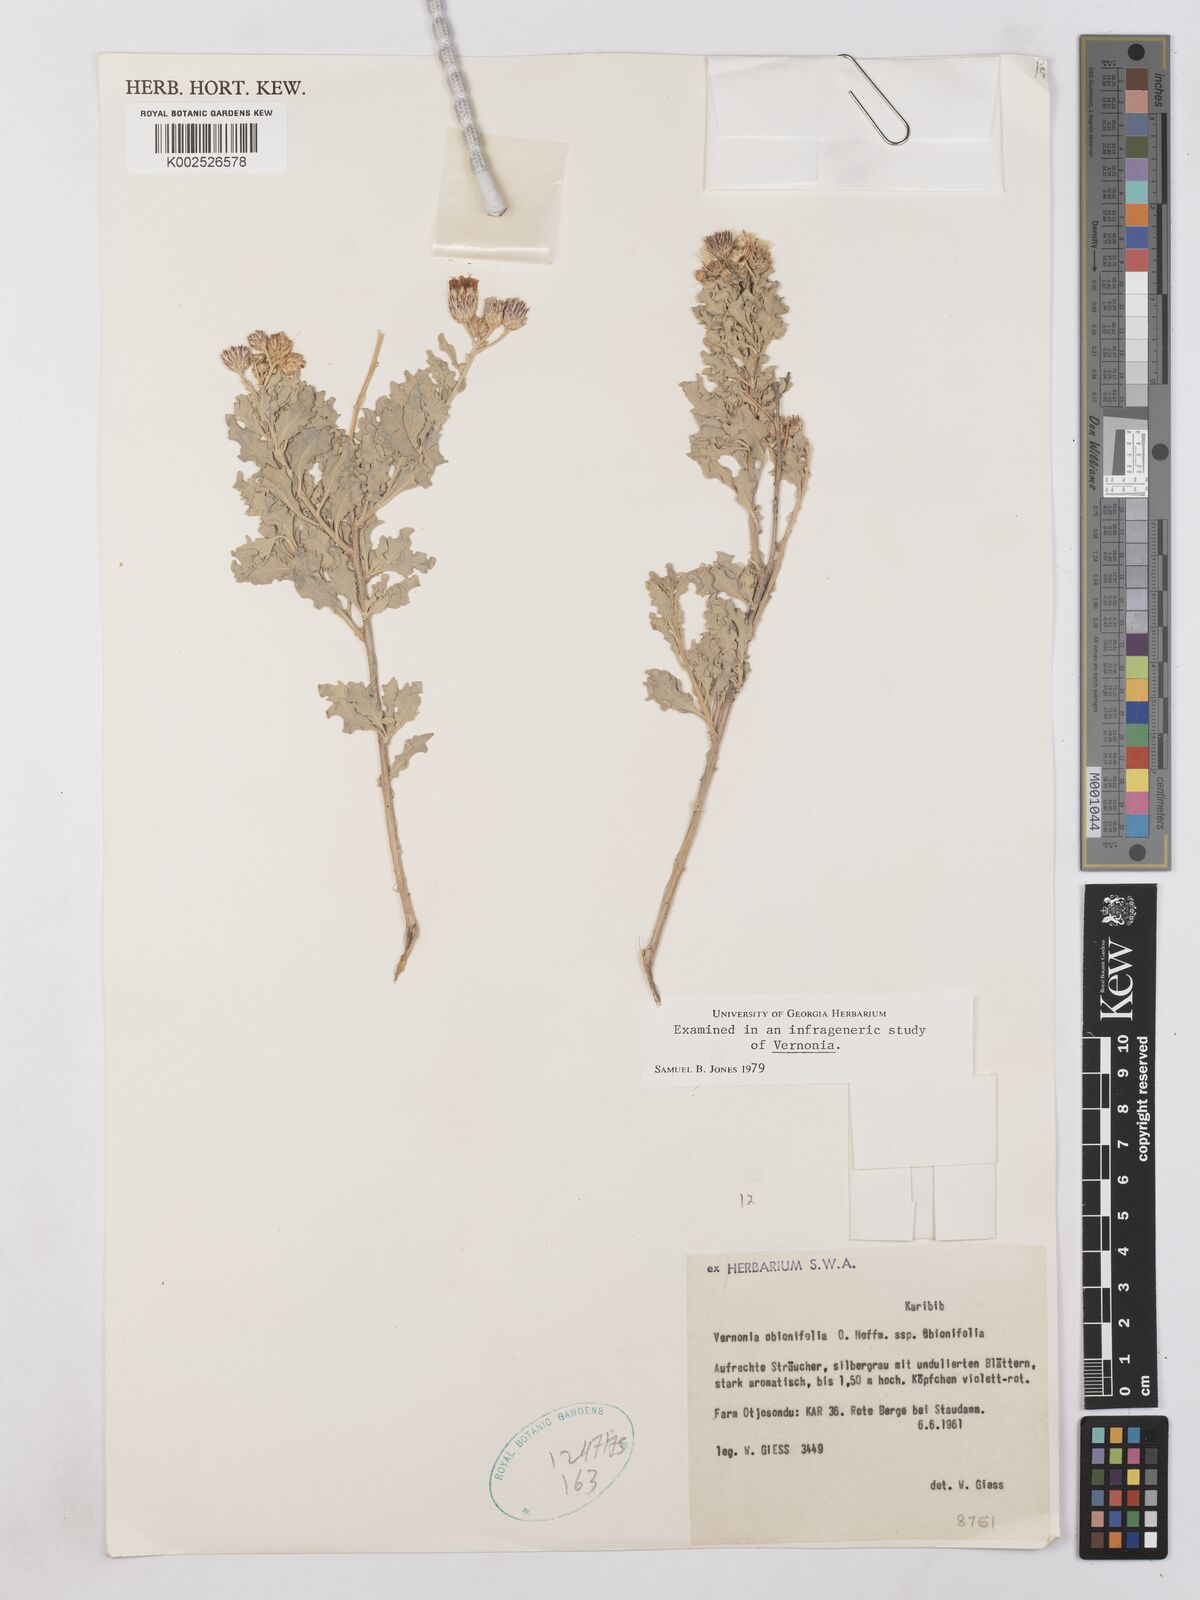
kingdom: Plantae
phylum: Tracheophyta
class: Magnoliopsida
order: Asterales
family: Asteraceae
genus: Namibithamnus
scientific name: Namibithamnus obionifolius
